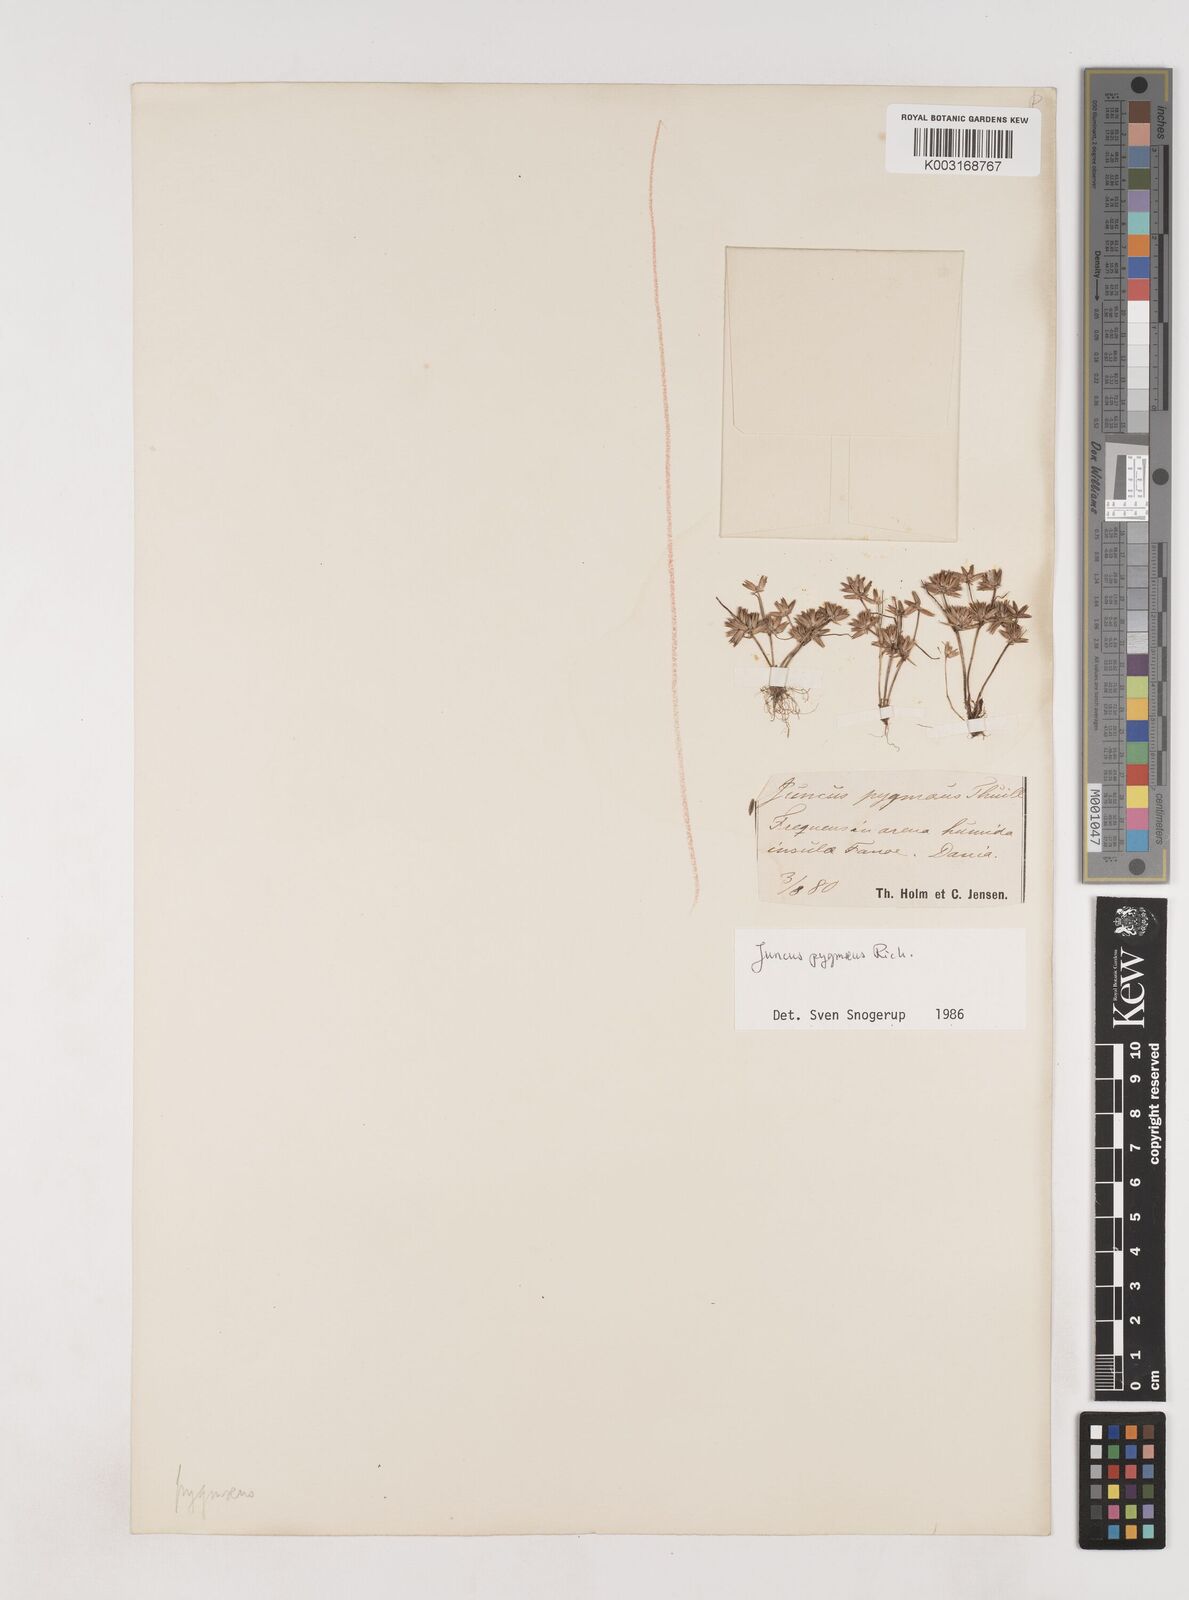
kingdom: Plantae
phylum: Tracheophyta
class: Liliopsida
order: Poales
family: Juncaceae
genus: Juncus
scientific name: Juncus pygmaeus
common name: Pigmy rush
